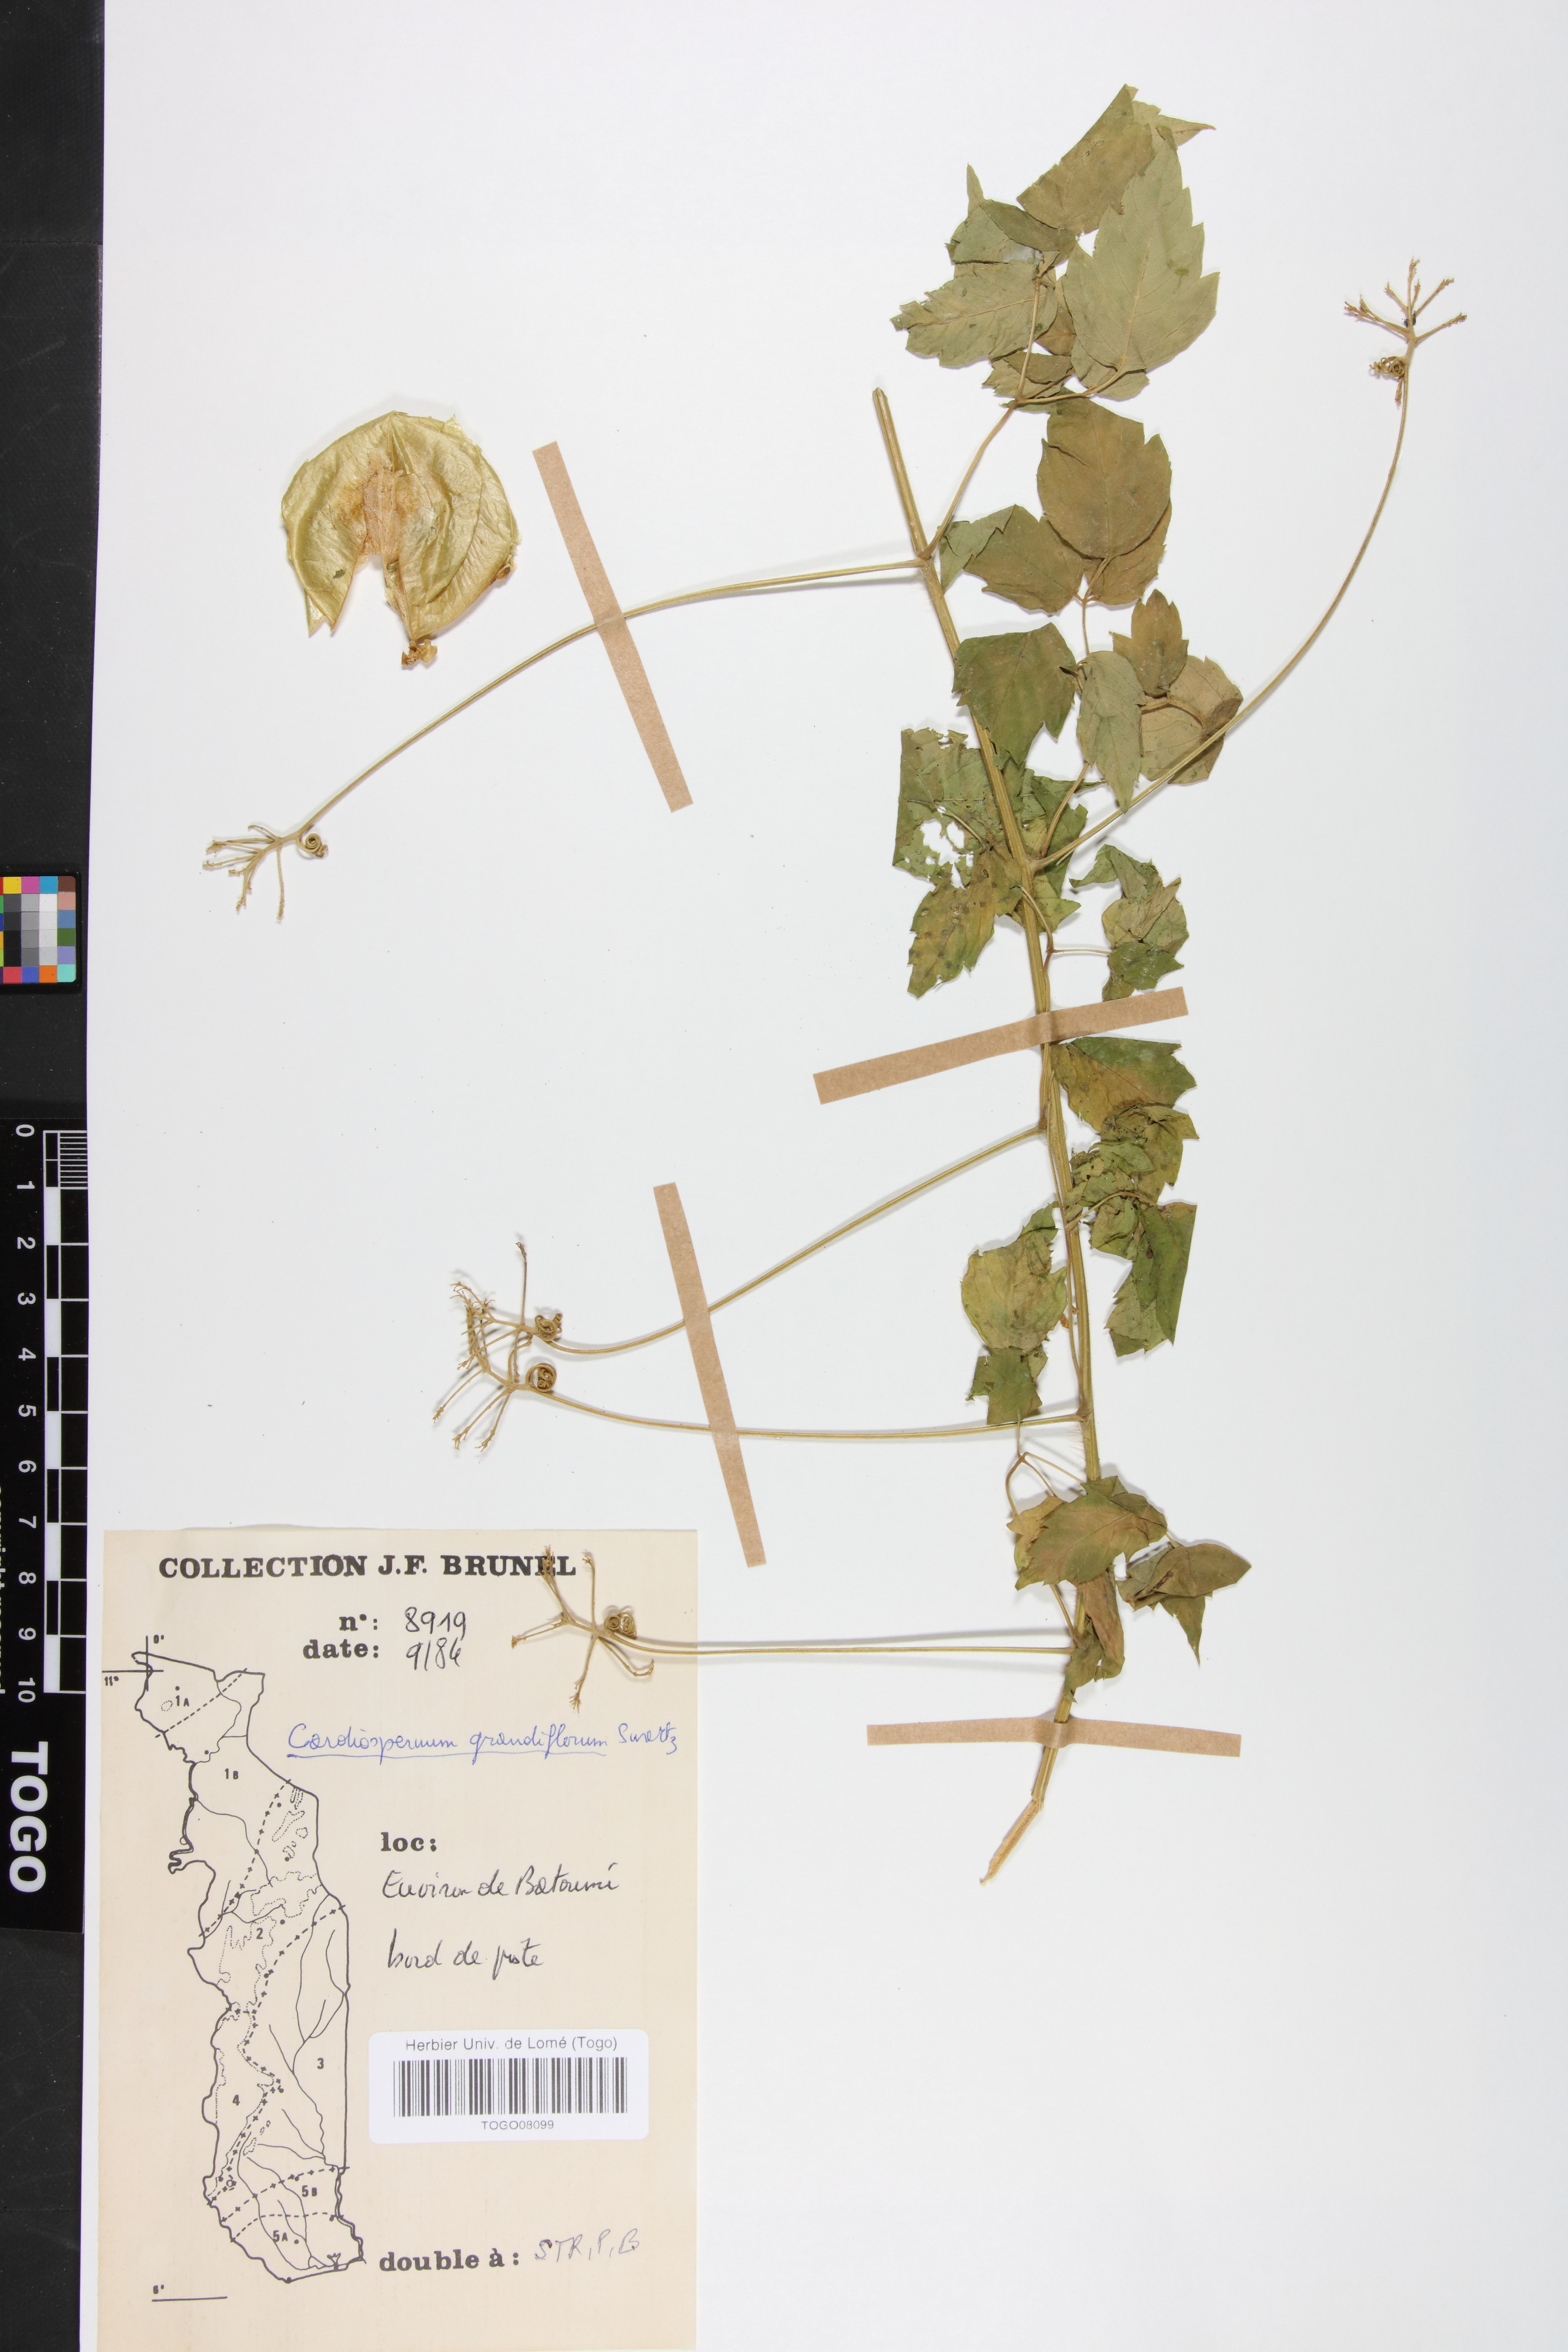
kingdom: Plantae
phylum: Tracheophyta
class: Magnoliopsida
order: Sapindales
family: Sapindaceae
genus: Cardiospermum
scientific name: Cardiospermum grandiflorum
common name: Balloon vine
